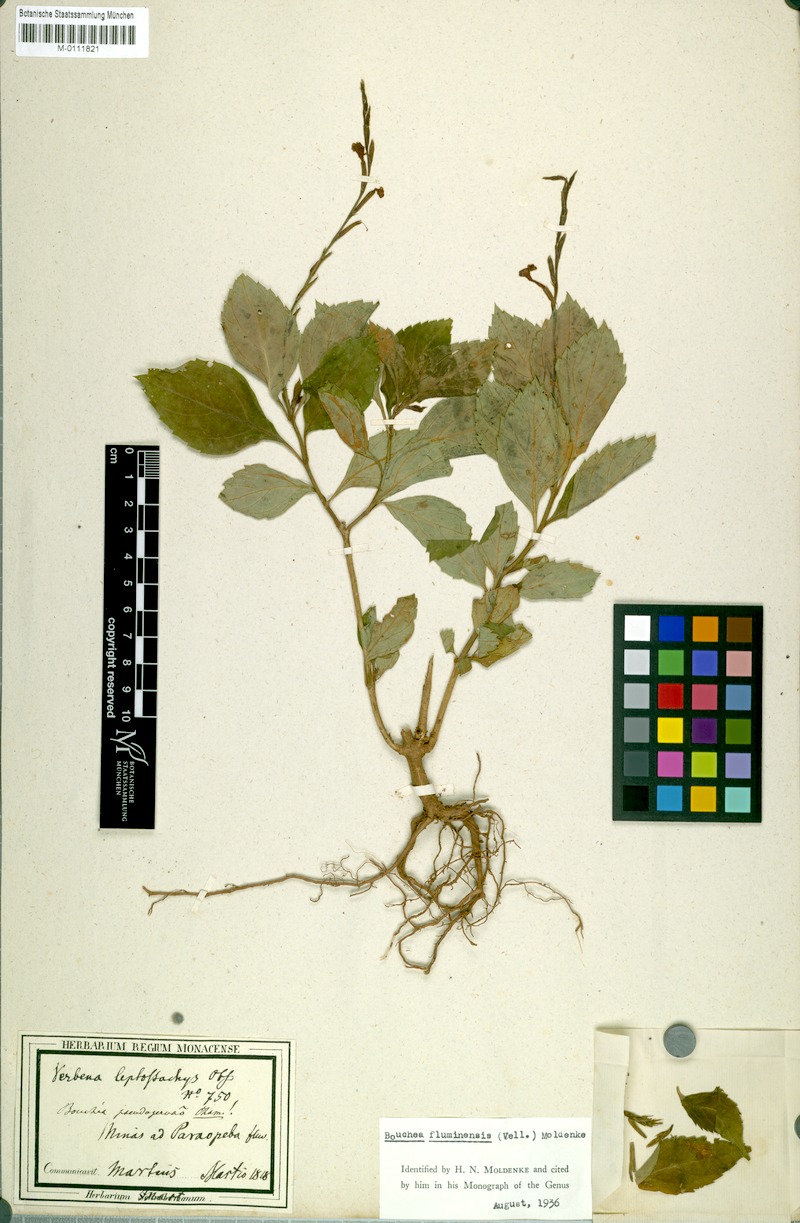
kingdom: Plantae
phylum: Tracheophyta
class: Magnoliopsida
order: Lamiales
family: Verbenaceae
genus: Bouchea
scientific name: Bouchea pseudogervao
